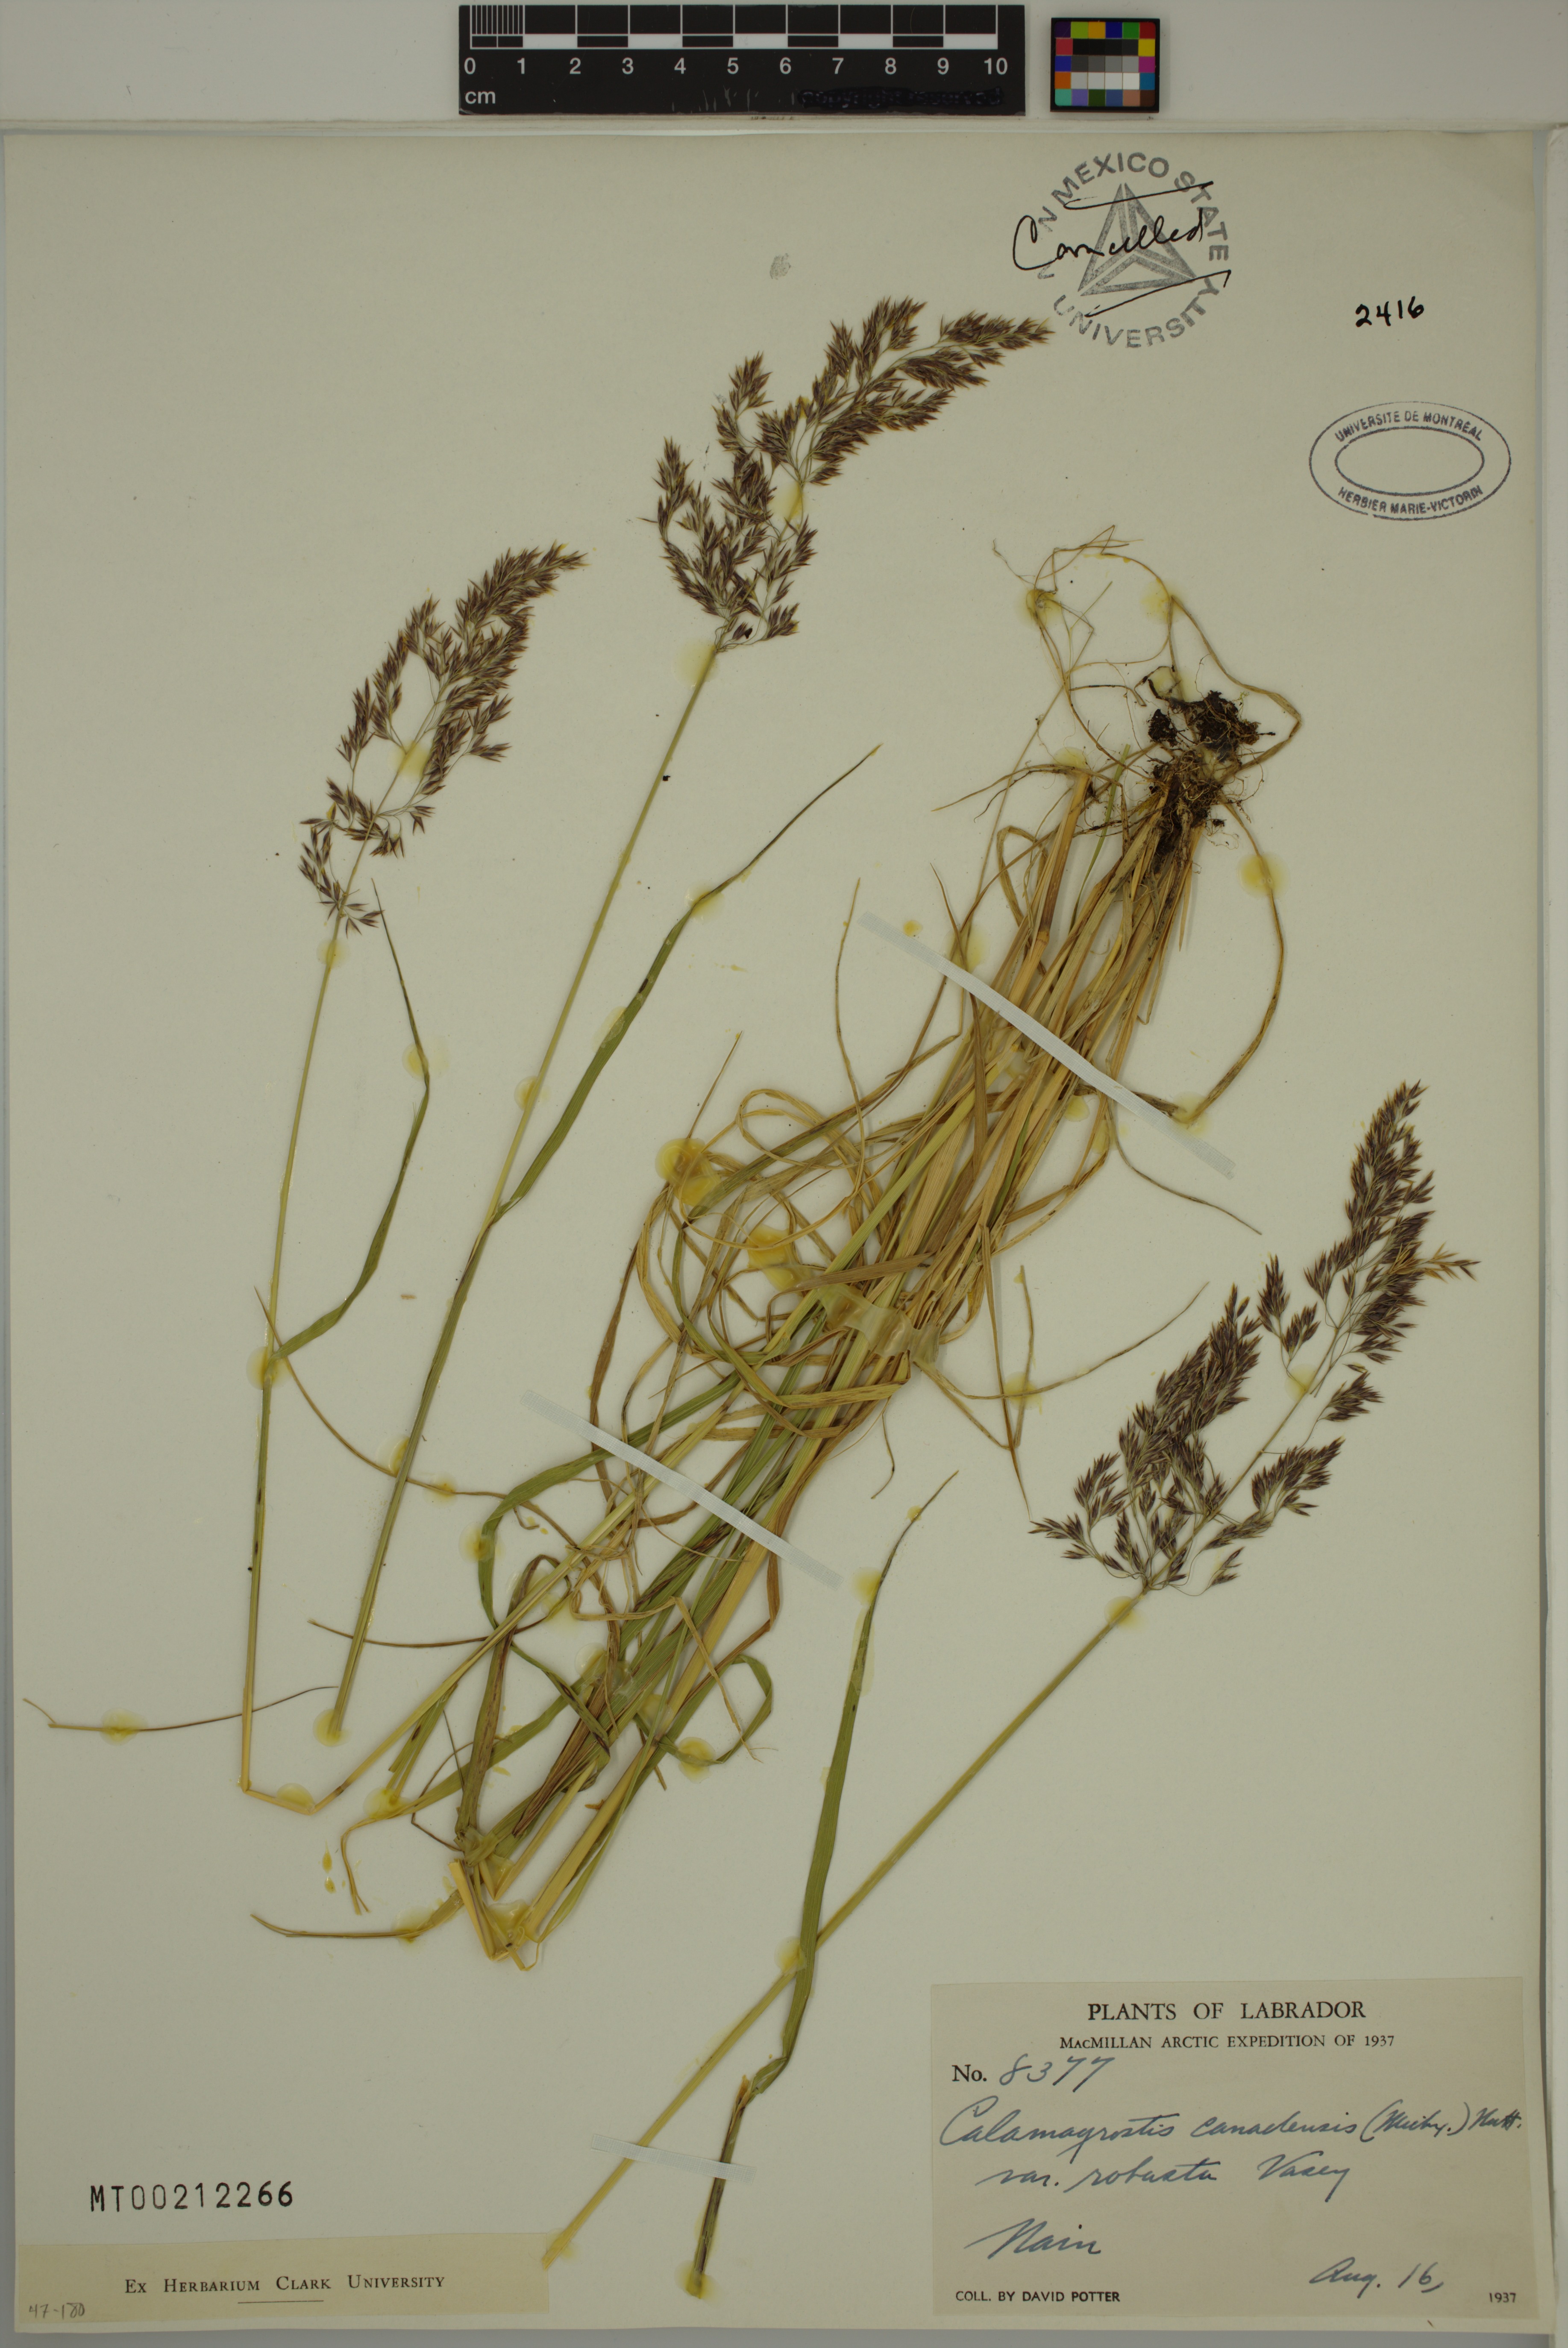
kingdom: Plantae
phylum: Tracheophyta
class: Liliopsida
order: Poales
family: Poaceae
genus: Calamagrostis
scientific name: Calamagrostis canadensis
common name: Canada bluejoint
